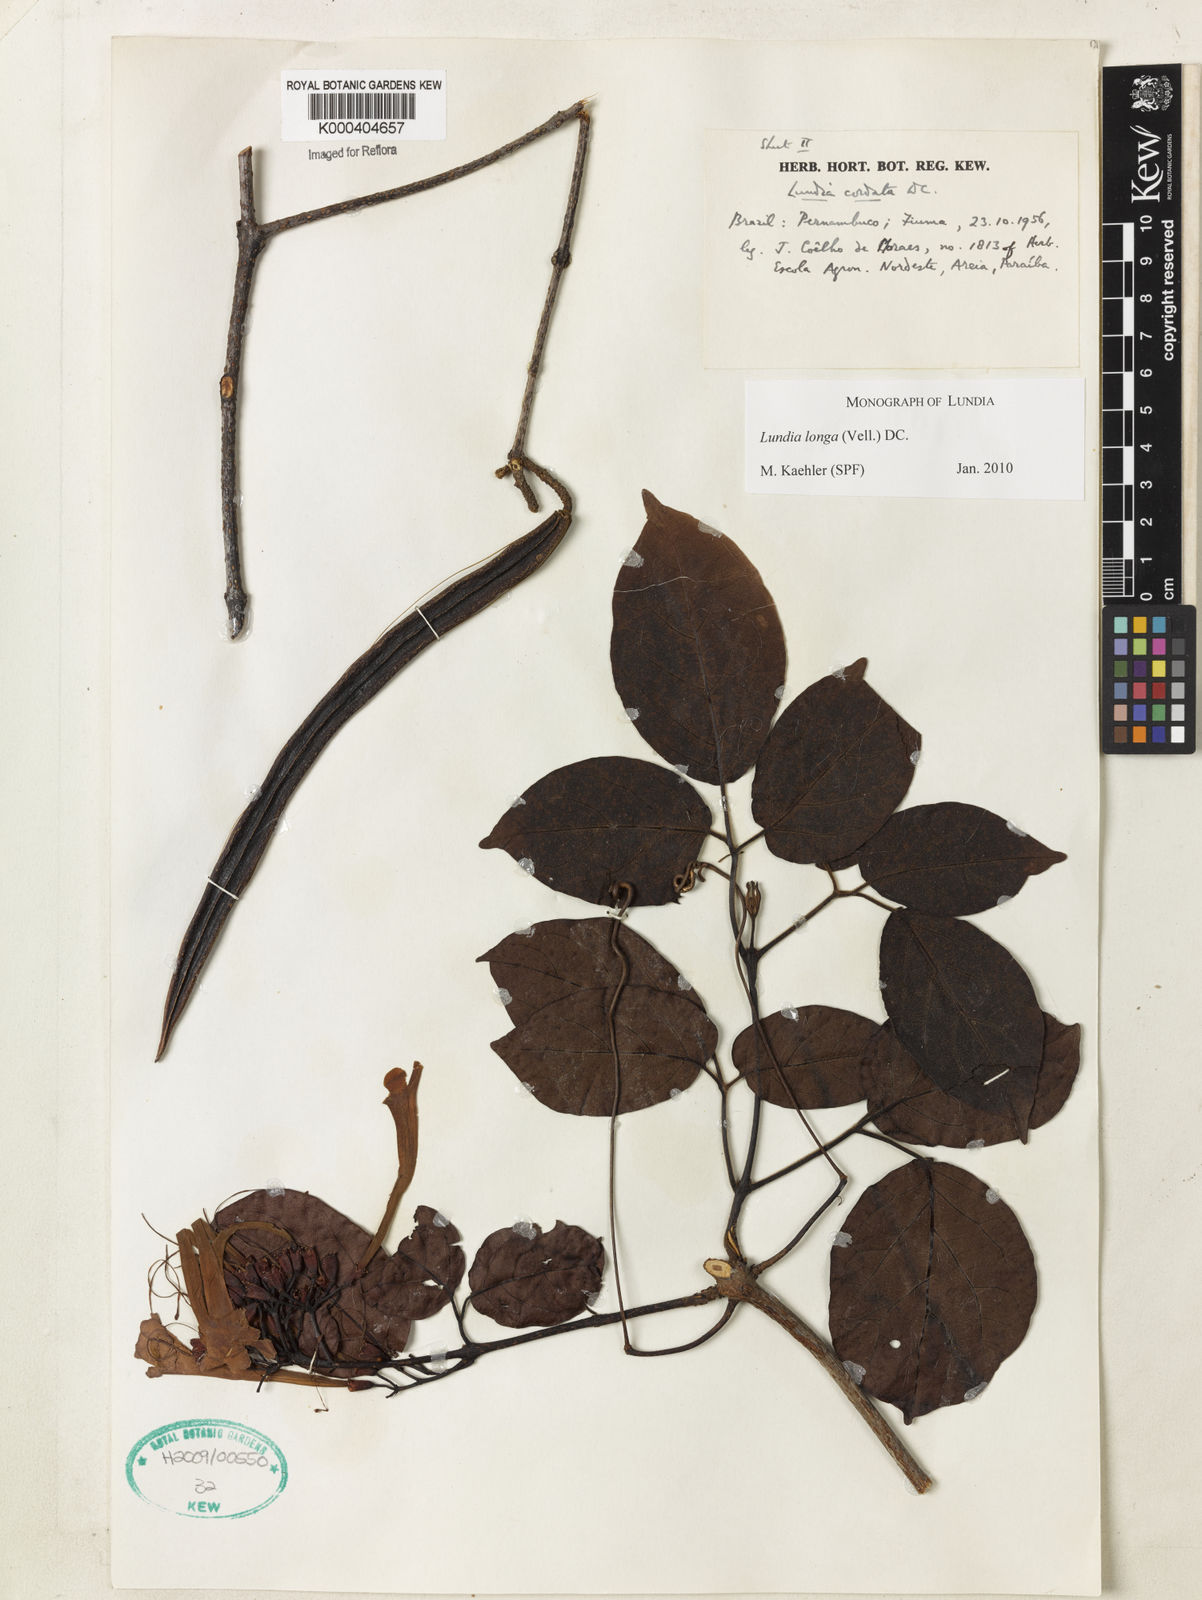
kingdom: Plantae
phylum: Tracheophyta
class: Magnoliopsida
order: Lamiales
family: Bignoniaceae
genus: Lundia
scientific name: Lundia longa
